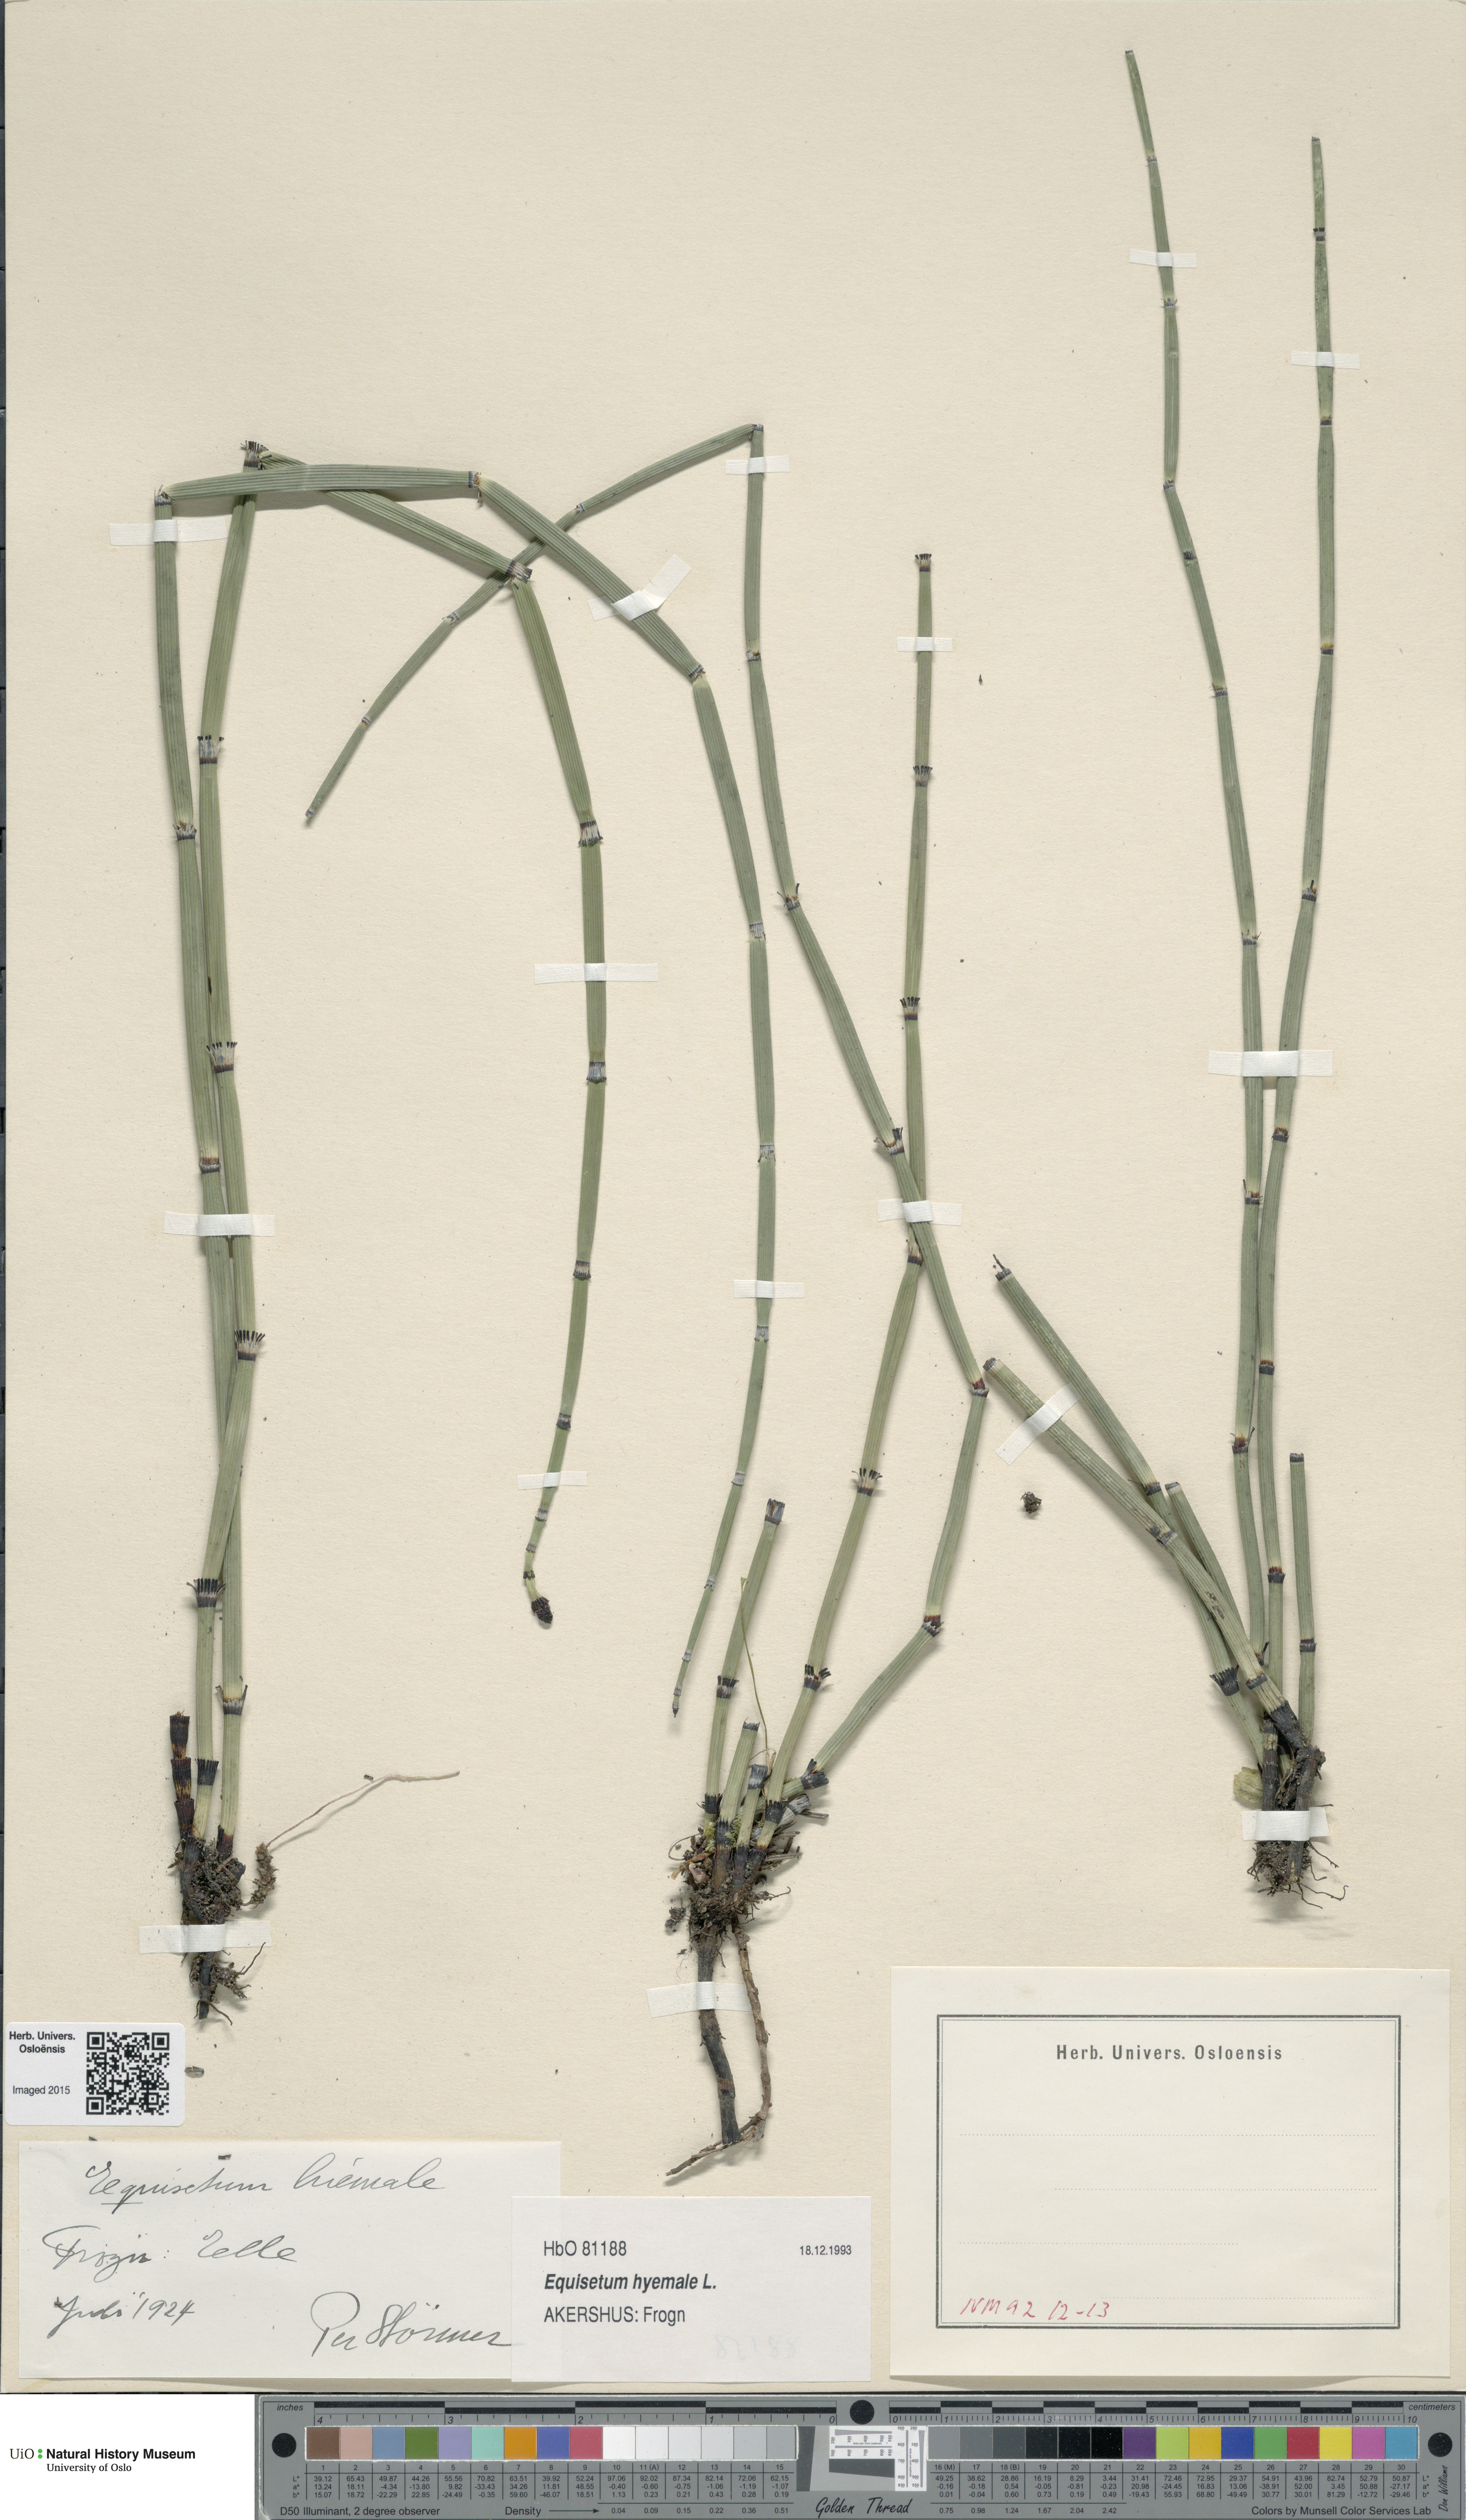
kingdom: Plantae
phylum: Tracheophyta
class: Polypodiopsida
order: Equisetales
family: Equisetaceae
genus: Equisetum
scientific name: Equisetum hyemale
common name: Rough horsetail
